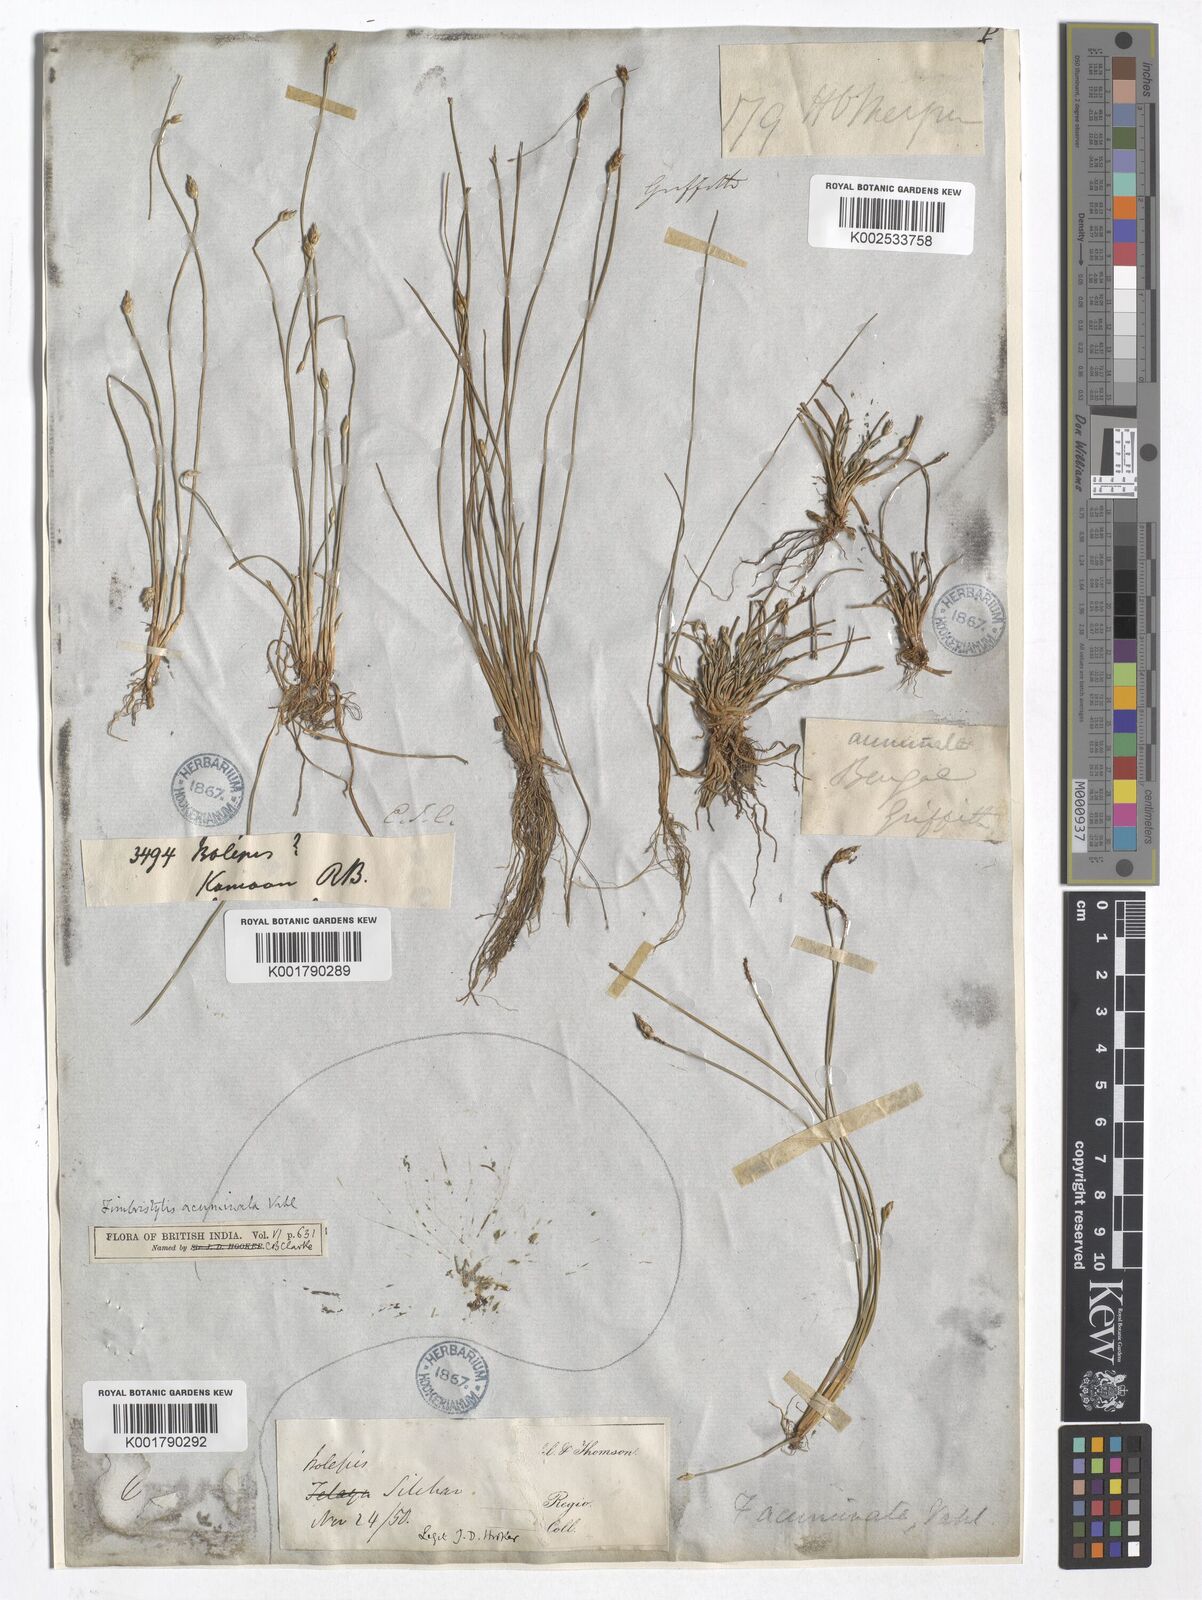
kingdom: Plantae
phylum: Tracheophyta
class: Liliopsida
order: Poales
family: Cyperaceae
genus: Fimbristylis
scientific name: Fimbristylis acuminata
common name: Pointed fimbristylis
